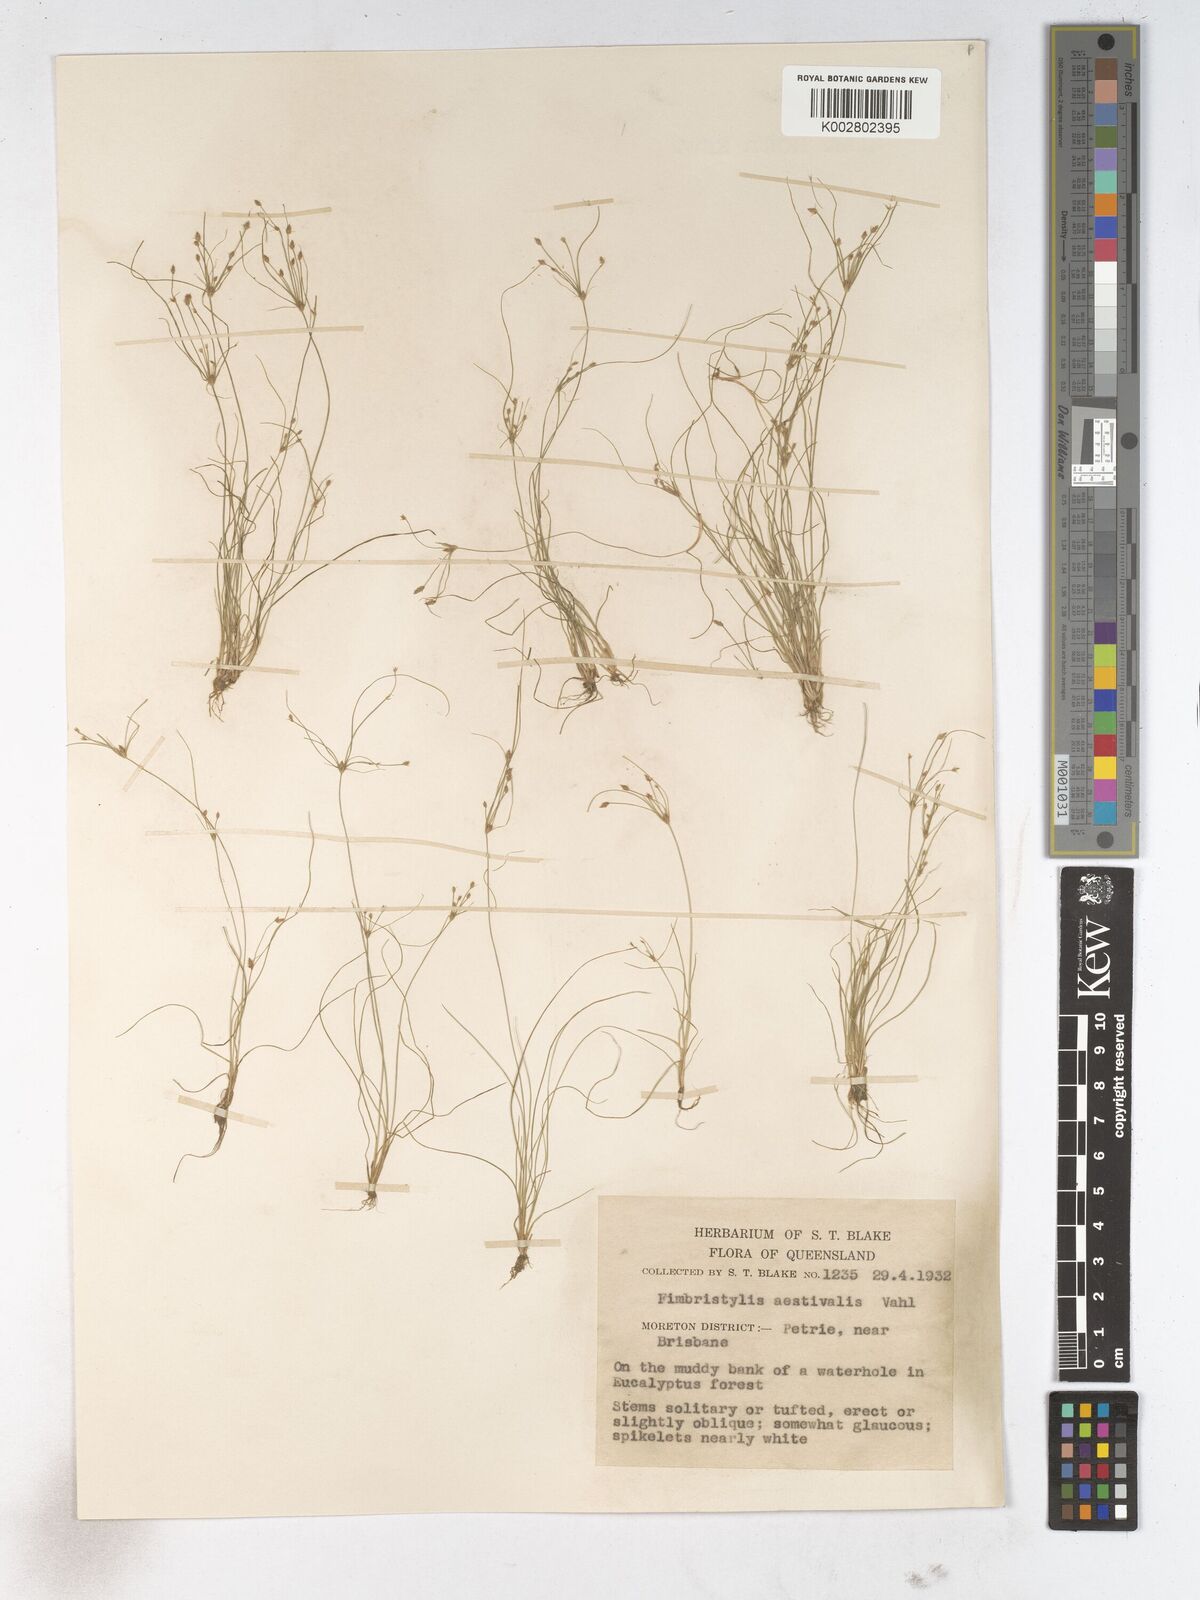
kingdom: Plantae
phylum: Tracheophyta
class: Liliopsida
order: Poales
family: Cyperaceae
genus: Fimbristylis
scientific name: Fimbristylis aestivalis
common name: Summer fimbry
